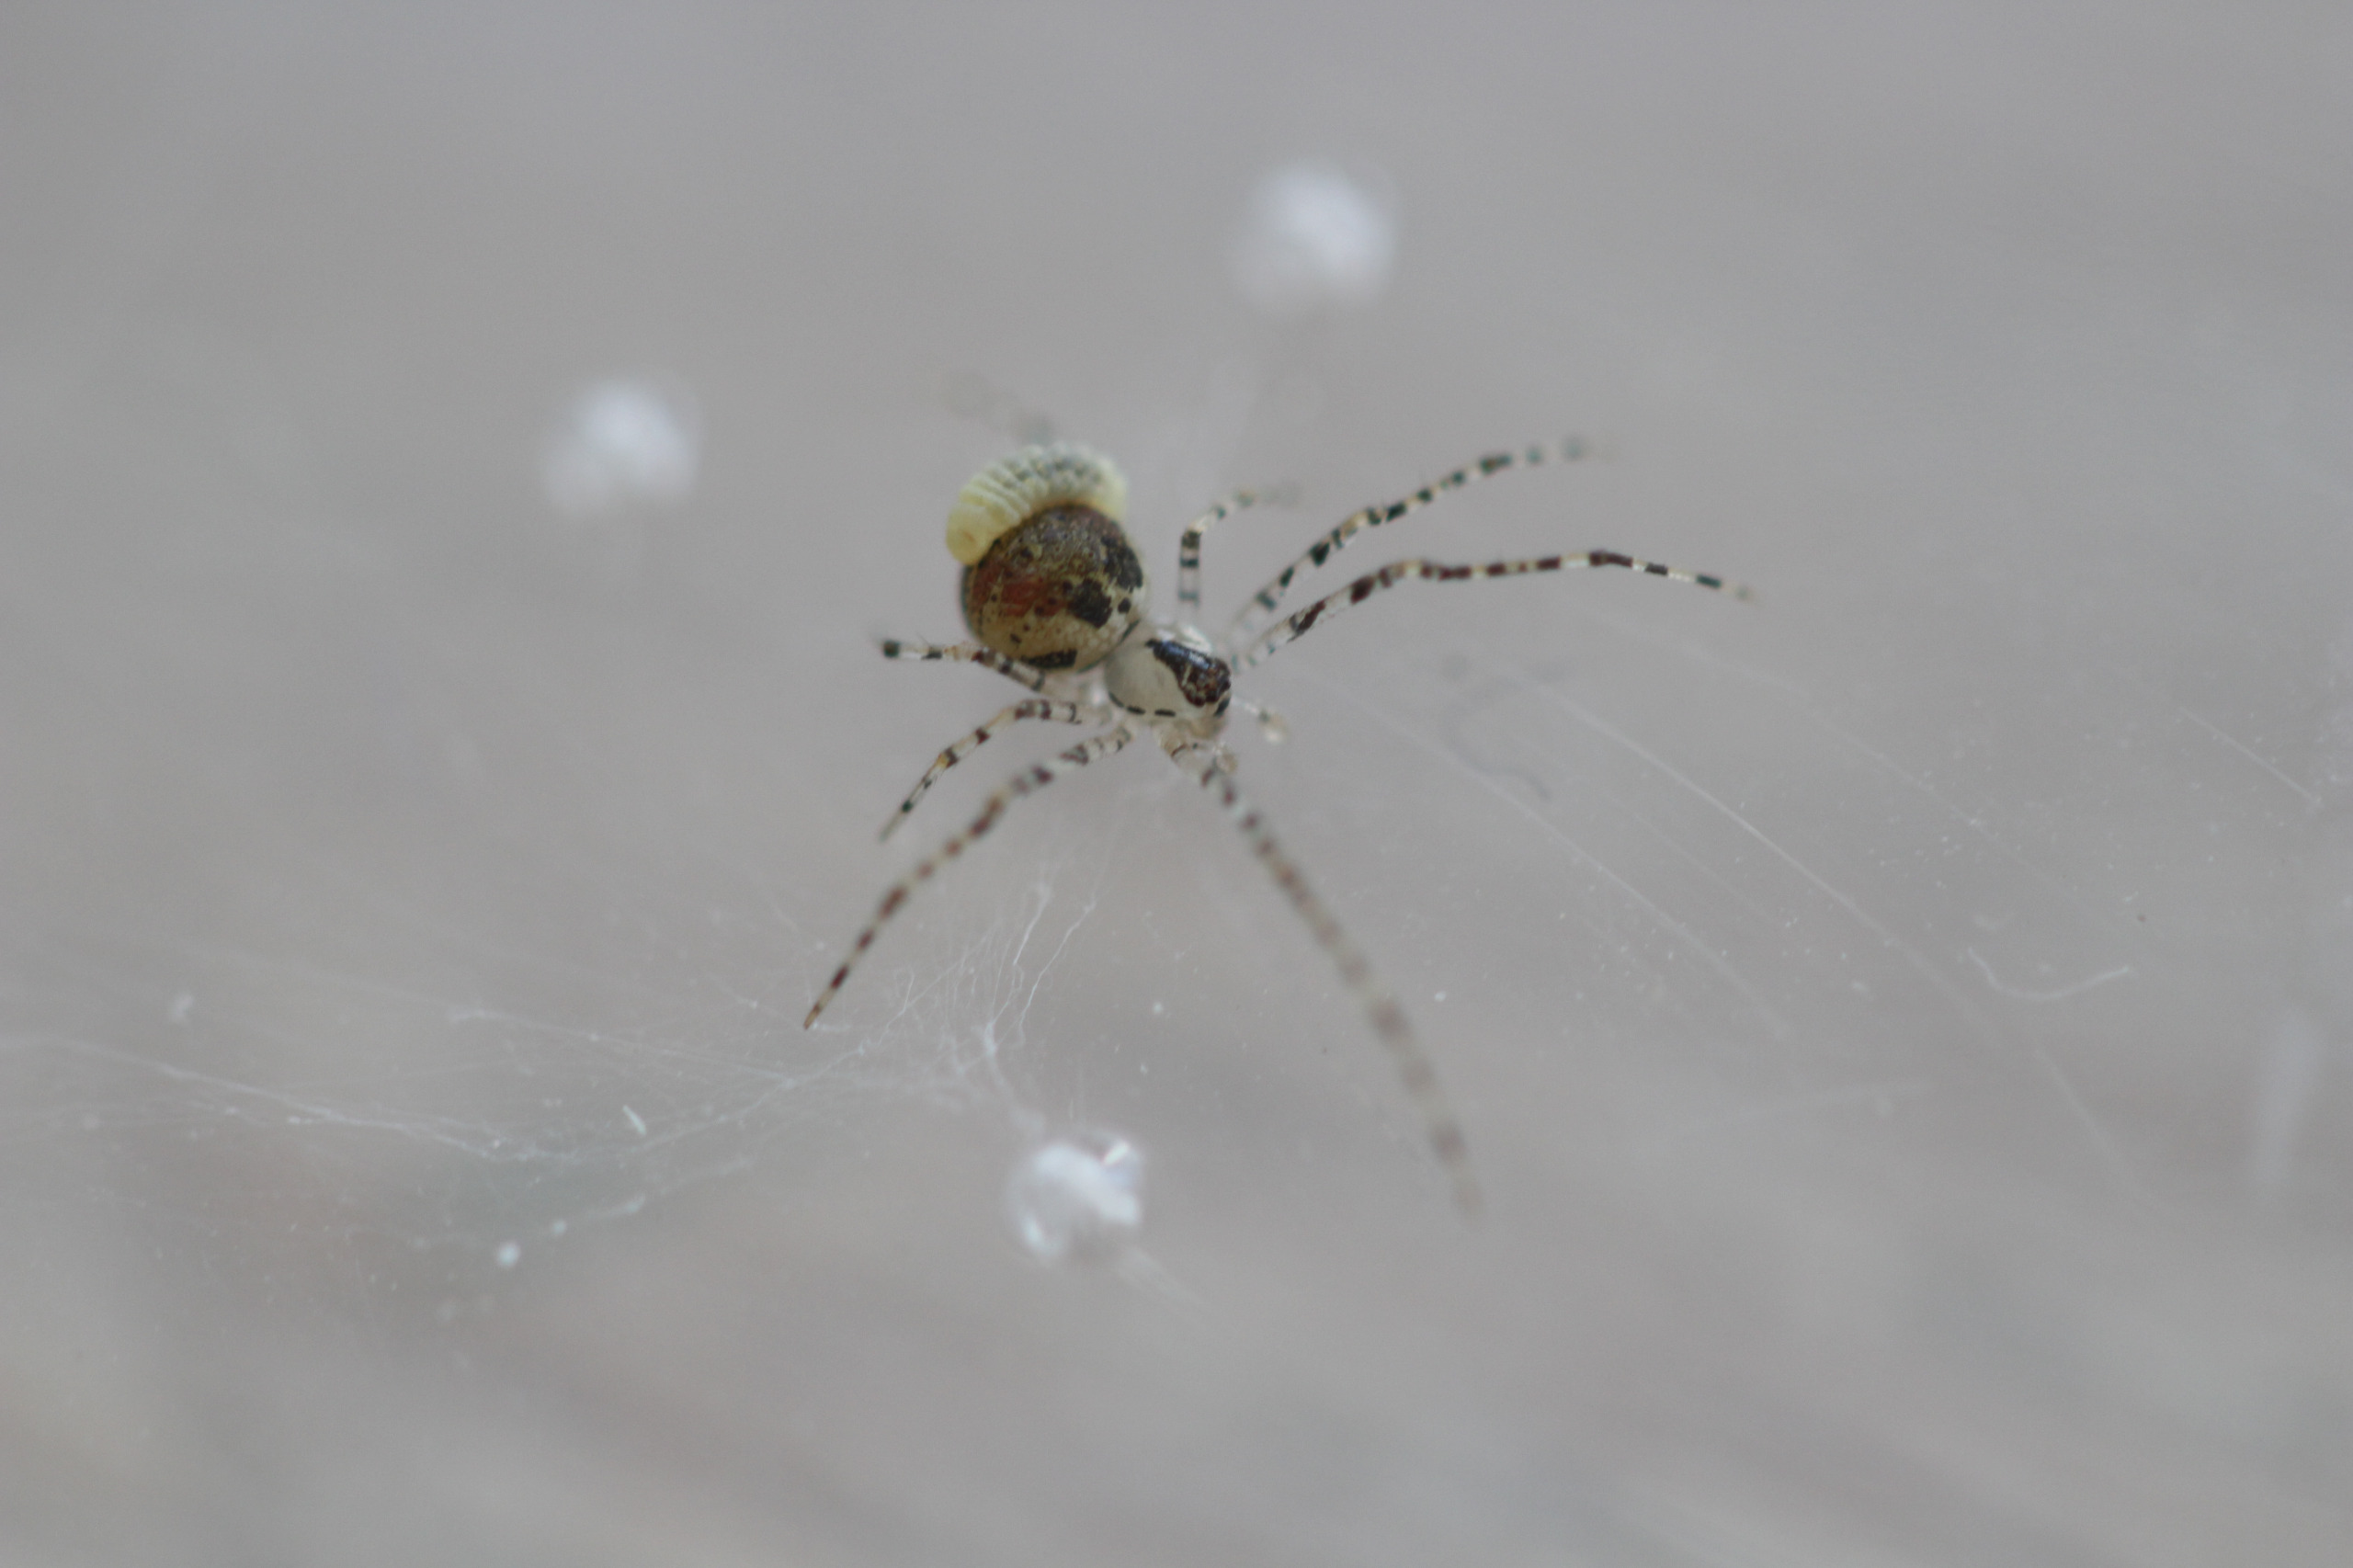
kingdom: Animalia
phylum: Arthropoda
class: Arachnida
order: Araneae
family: Theridiidae
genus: Platnickina
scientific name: Platnickina tincta
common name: Blækkugleedderkop
